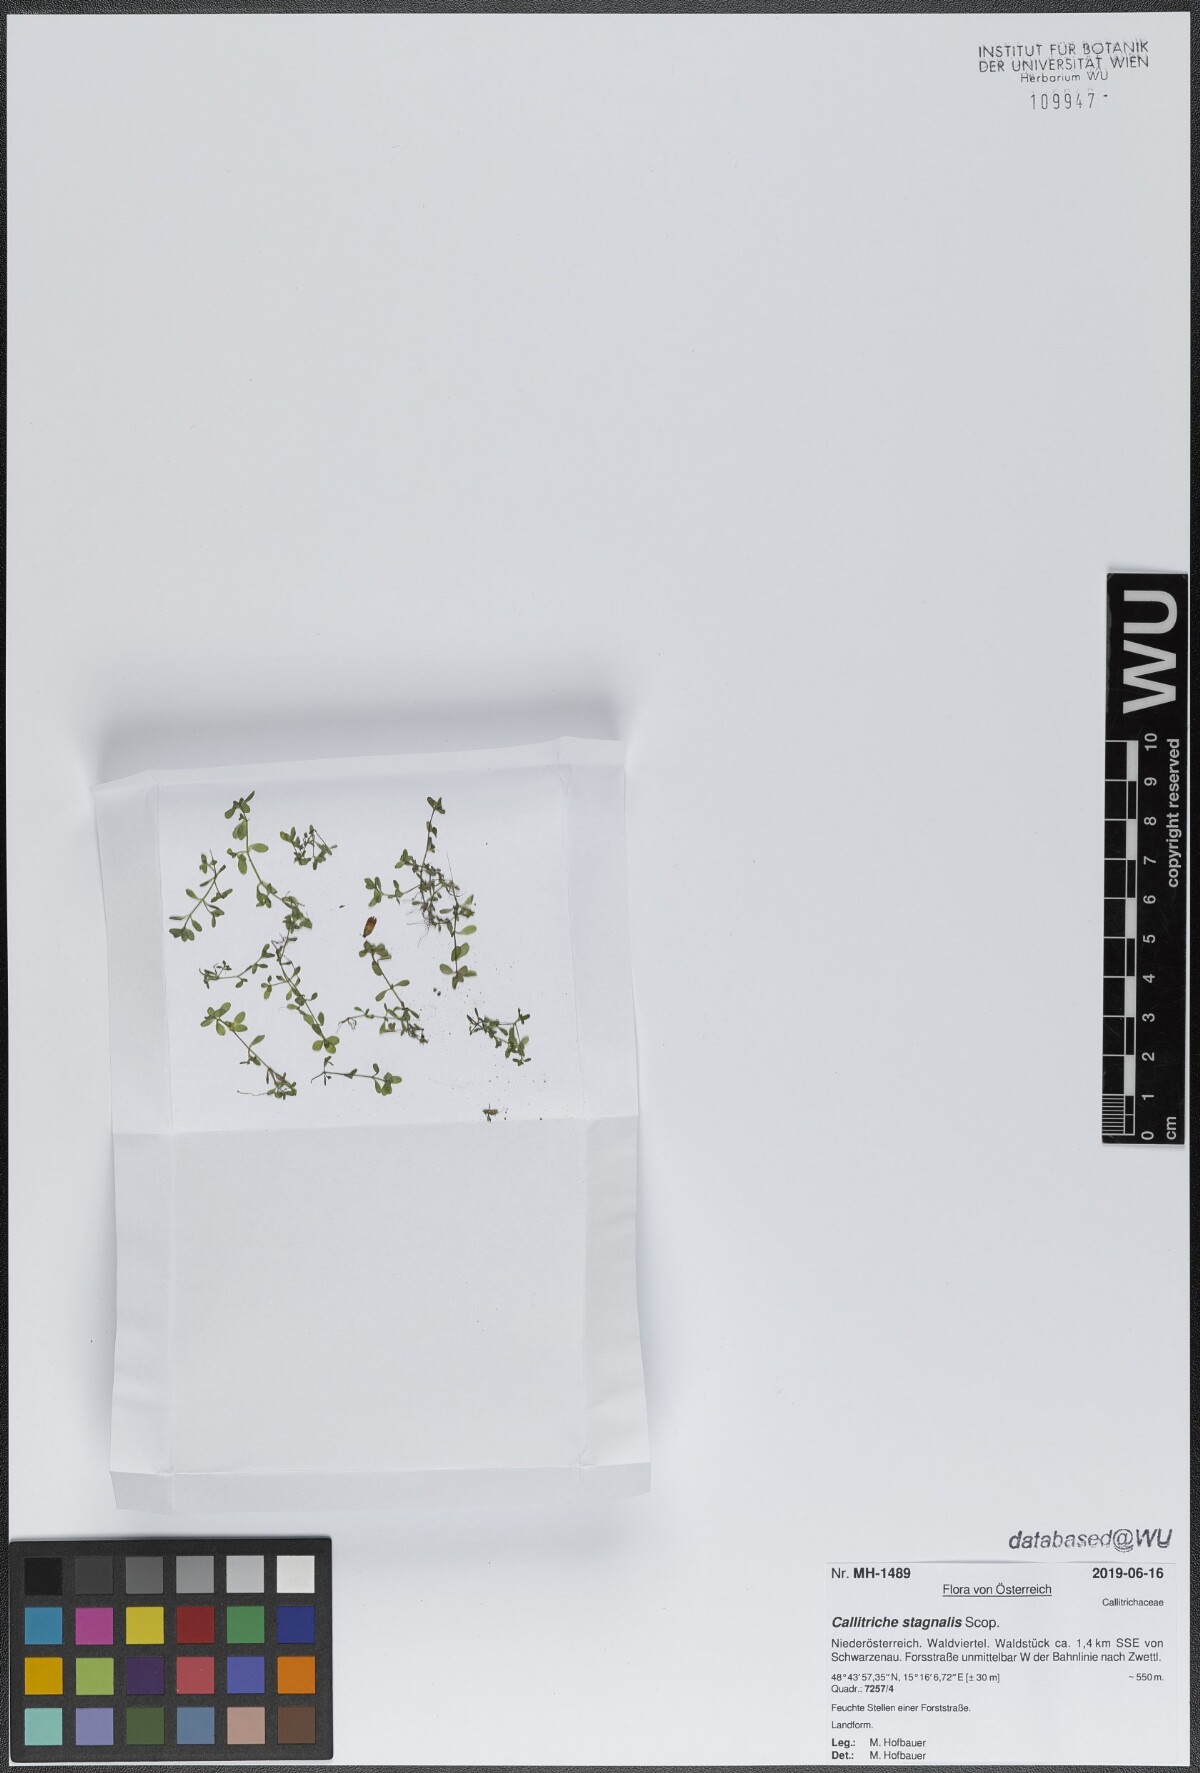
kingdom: Plantae
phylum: Tracheophyta
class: Magnoliopsida
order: Lamiales
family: Plantaginaceae
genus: Callitriche
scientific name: Callitriche stagnalis
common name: Common water-starwort
